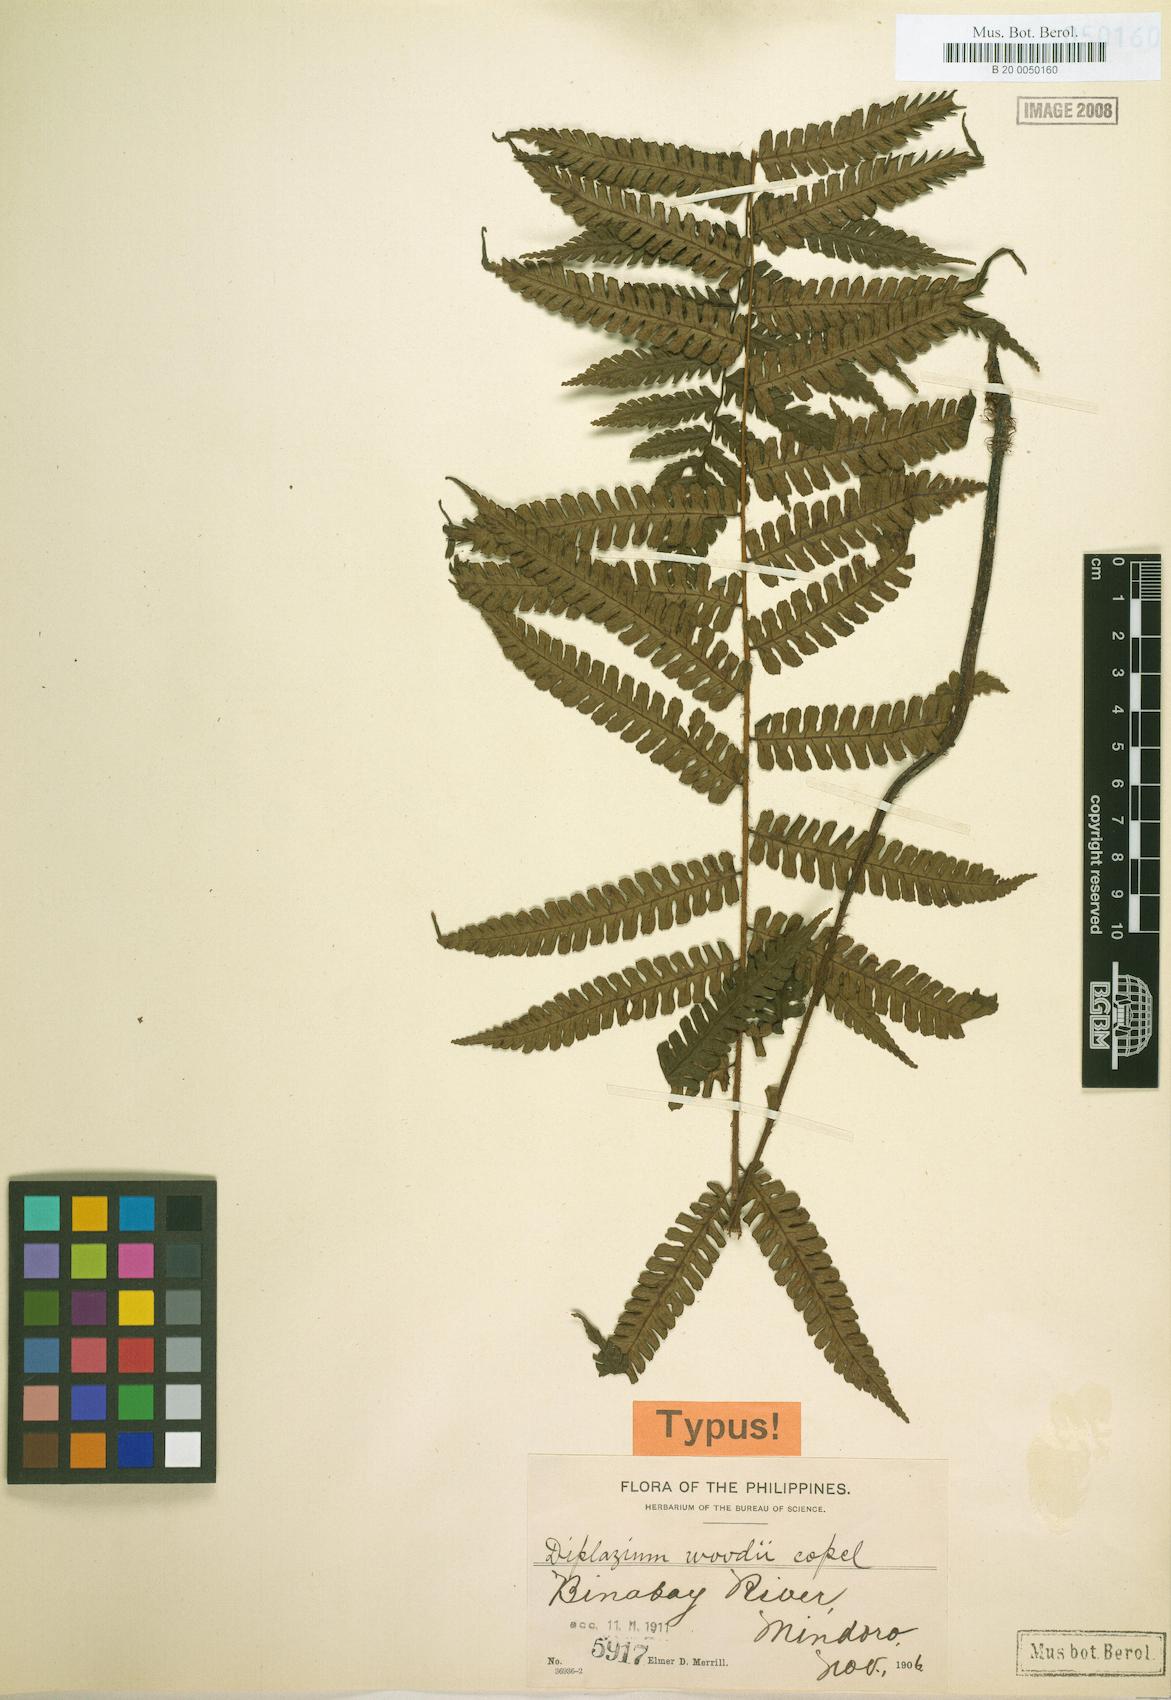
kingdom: Plantae
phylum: Tracheophyta
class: Polypodiopsida
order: Polypodiales
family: Athyriaceae
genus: Diplazium
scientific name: Diplazium sorzogonense
